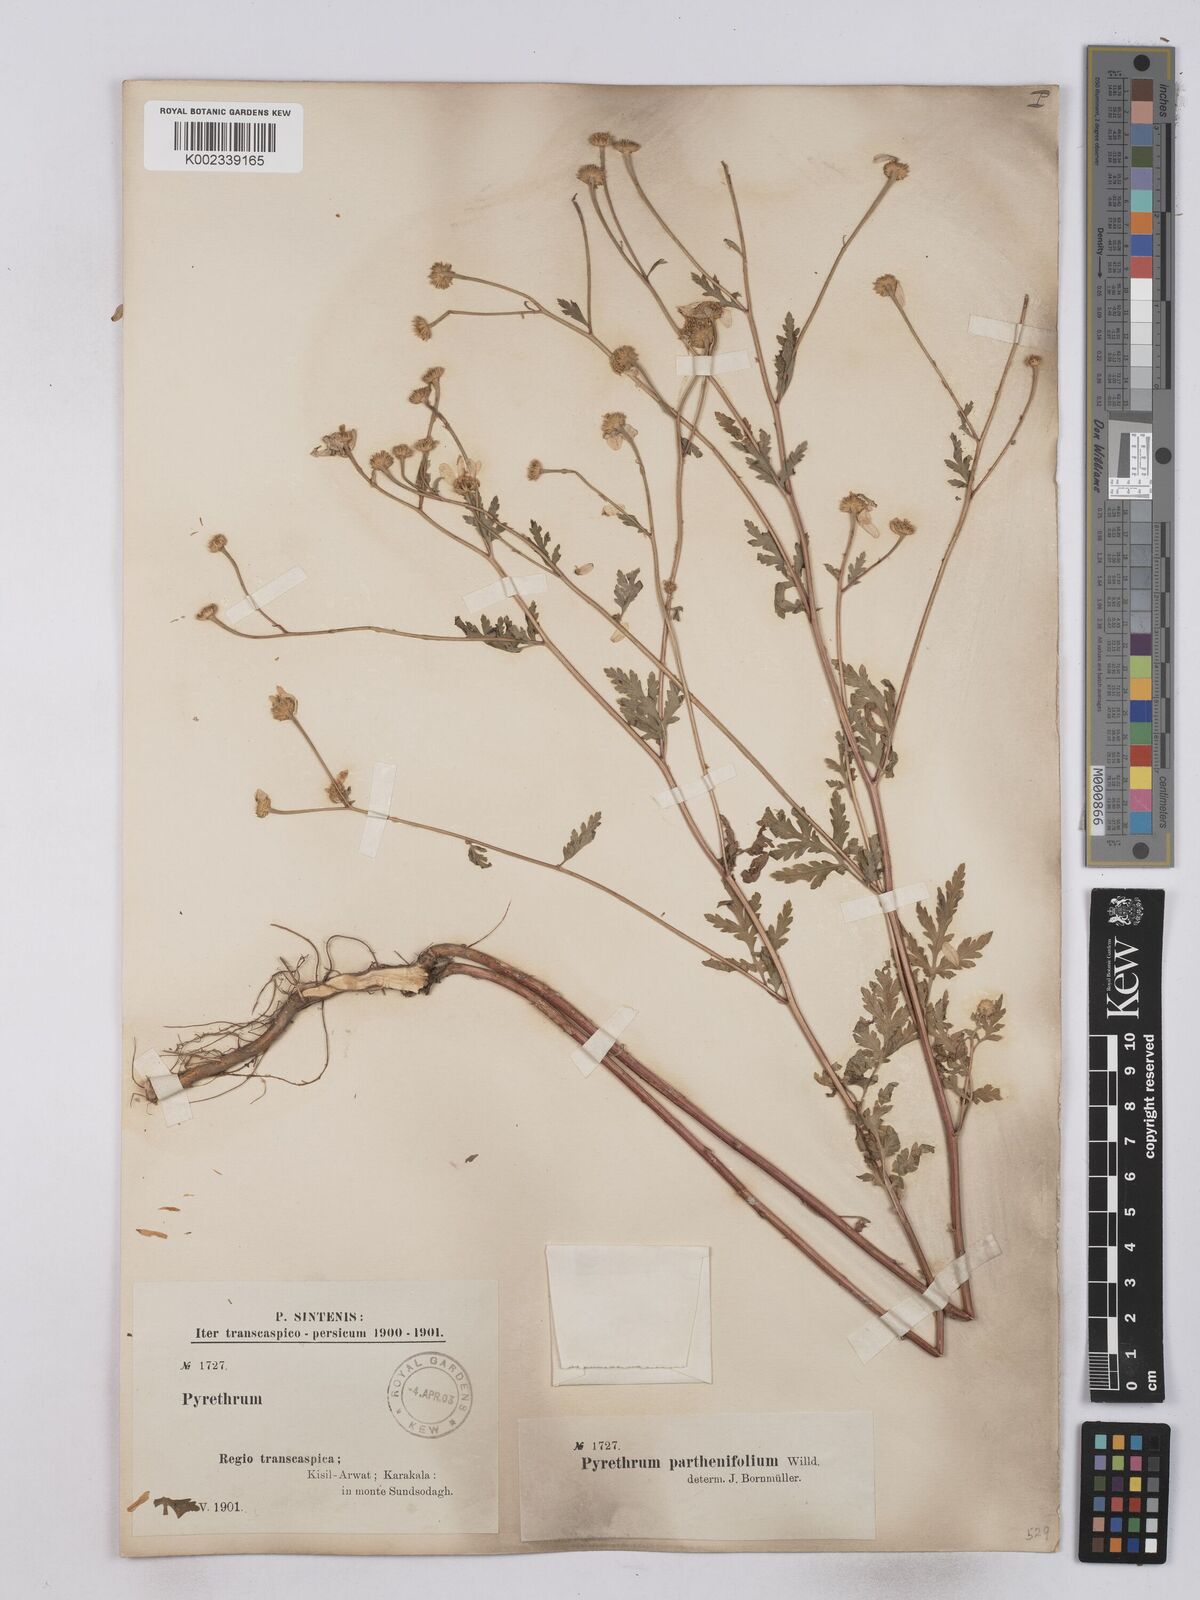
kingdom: Plantae
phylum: Tracheophyta
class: Magnoliopsida
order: Asterales
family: Asteraceae
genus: Tanacetum
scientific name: Tanacetum partheniifolium
